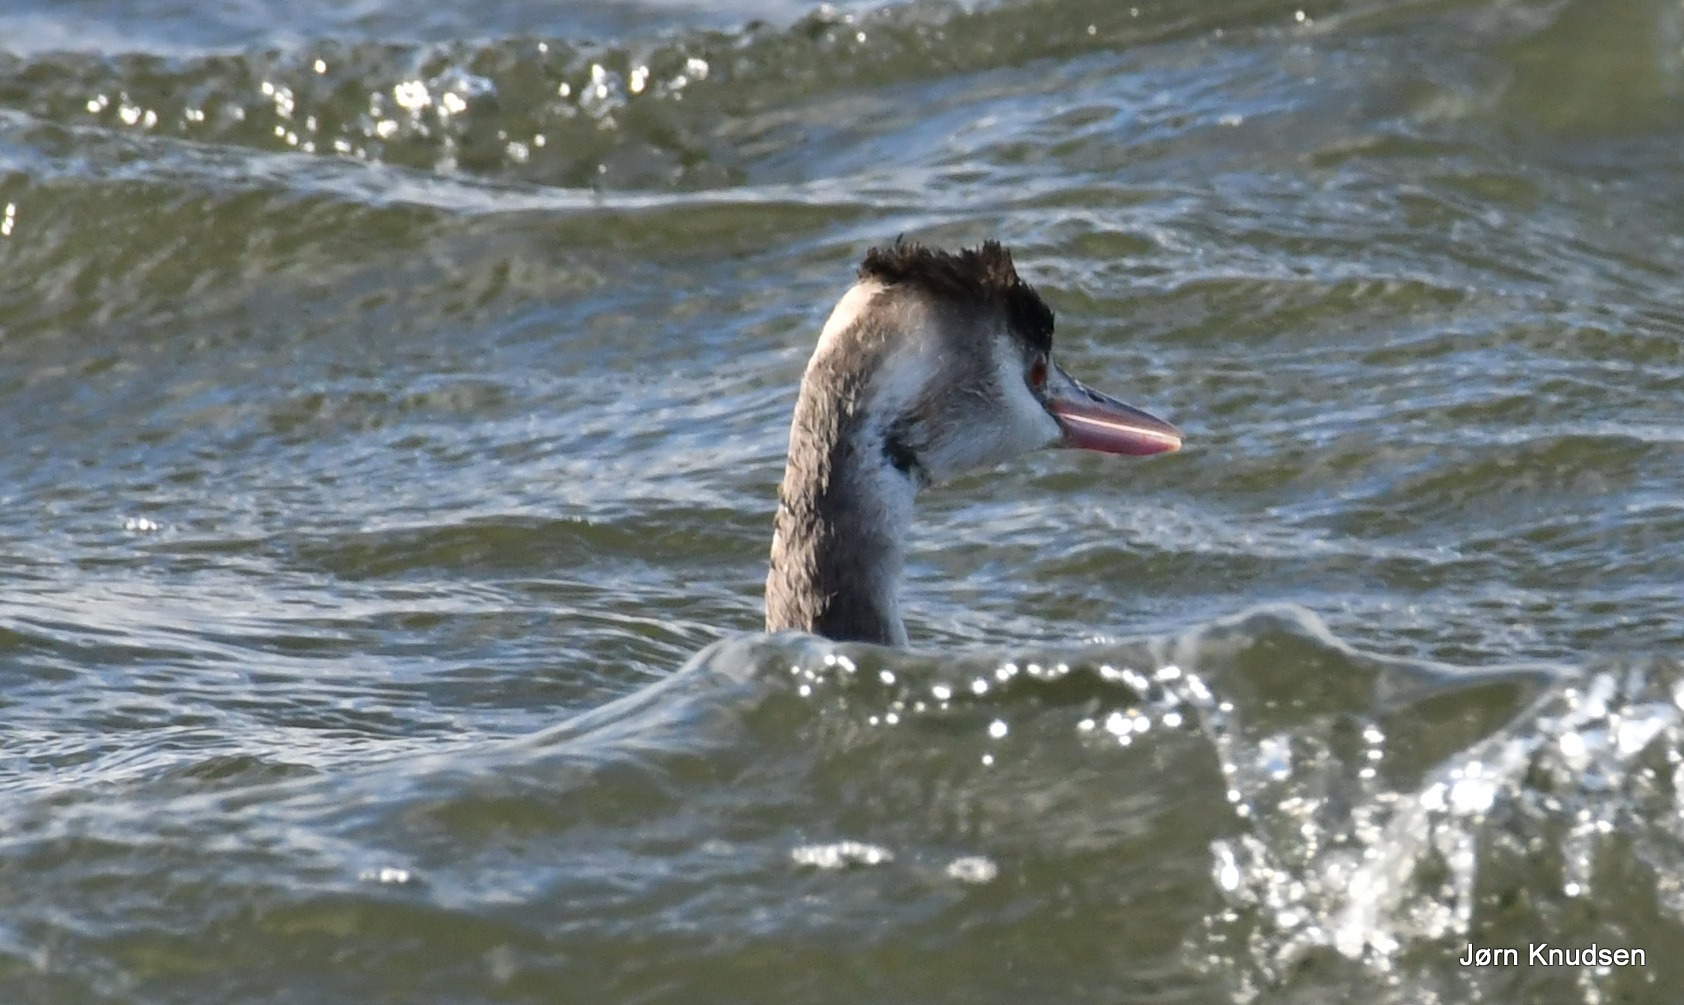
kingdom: Animalia
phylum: Chordata
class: Aves
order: Podicipediformes
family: Podicipedidae
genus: Podiceps
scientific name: Podiceps cristatus
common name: Toppet lappedykker
